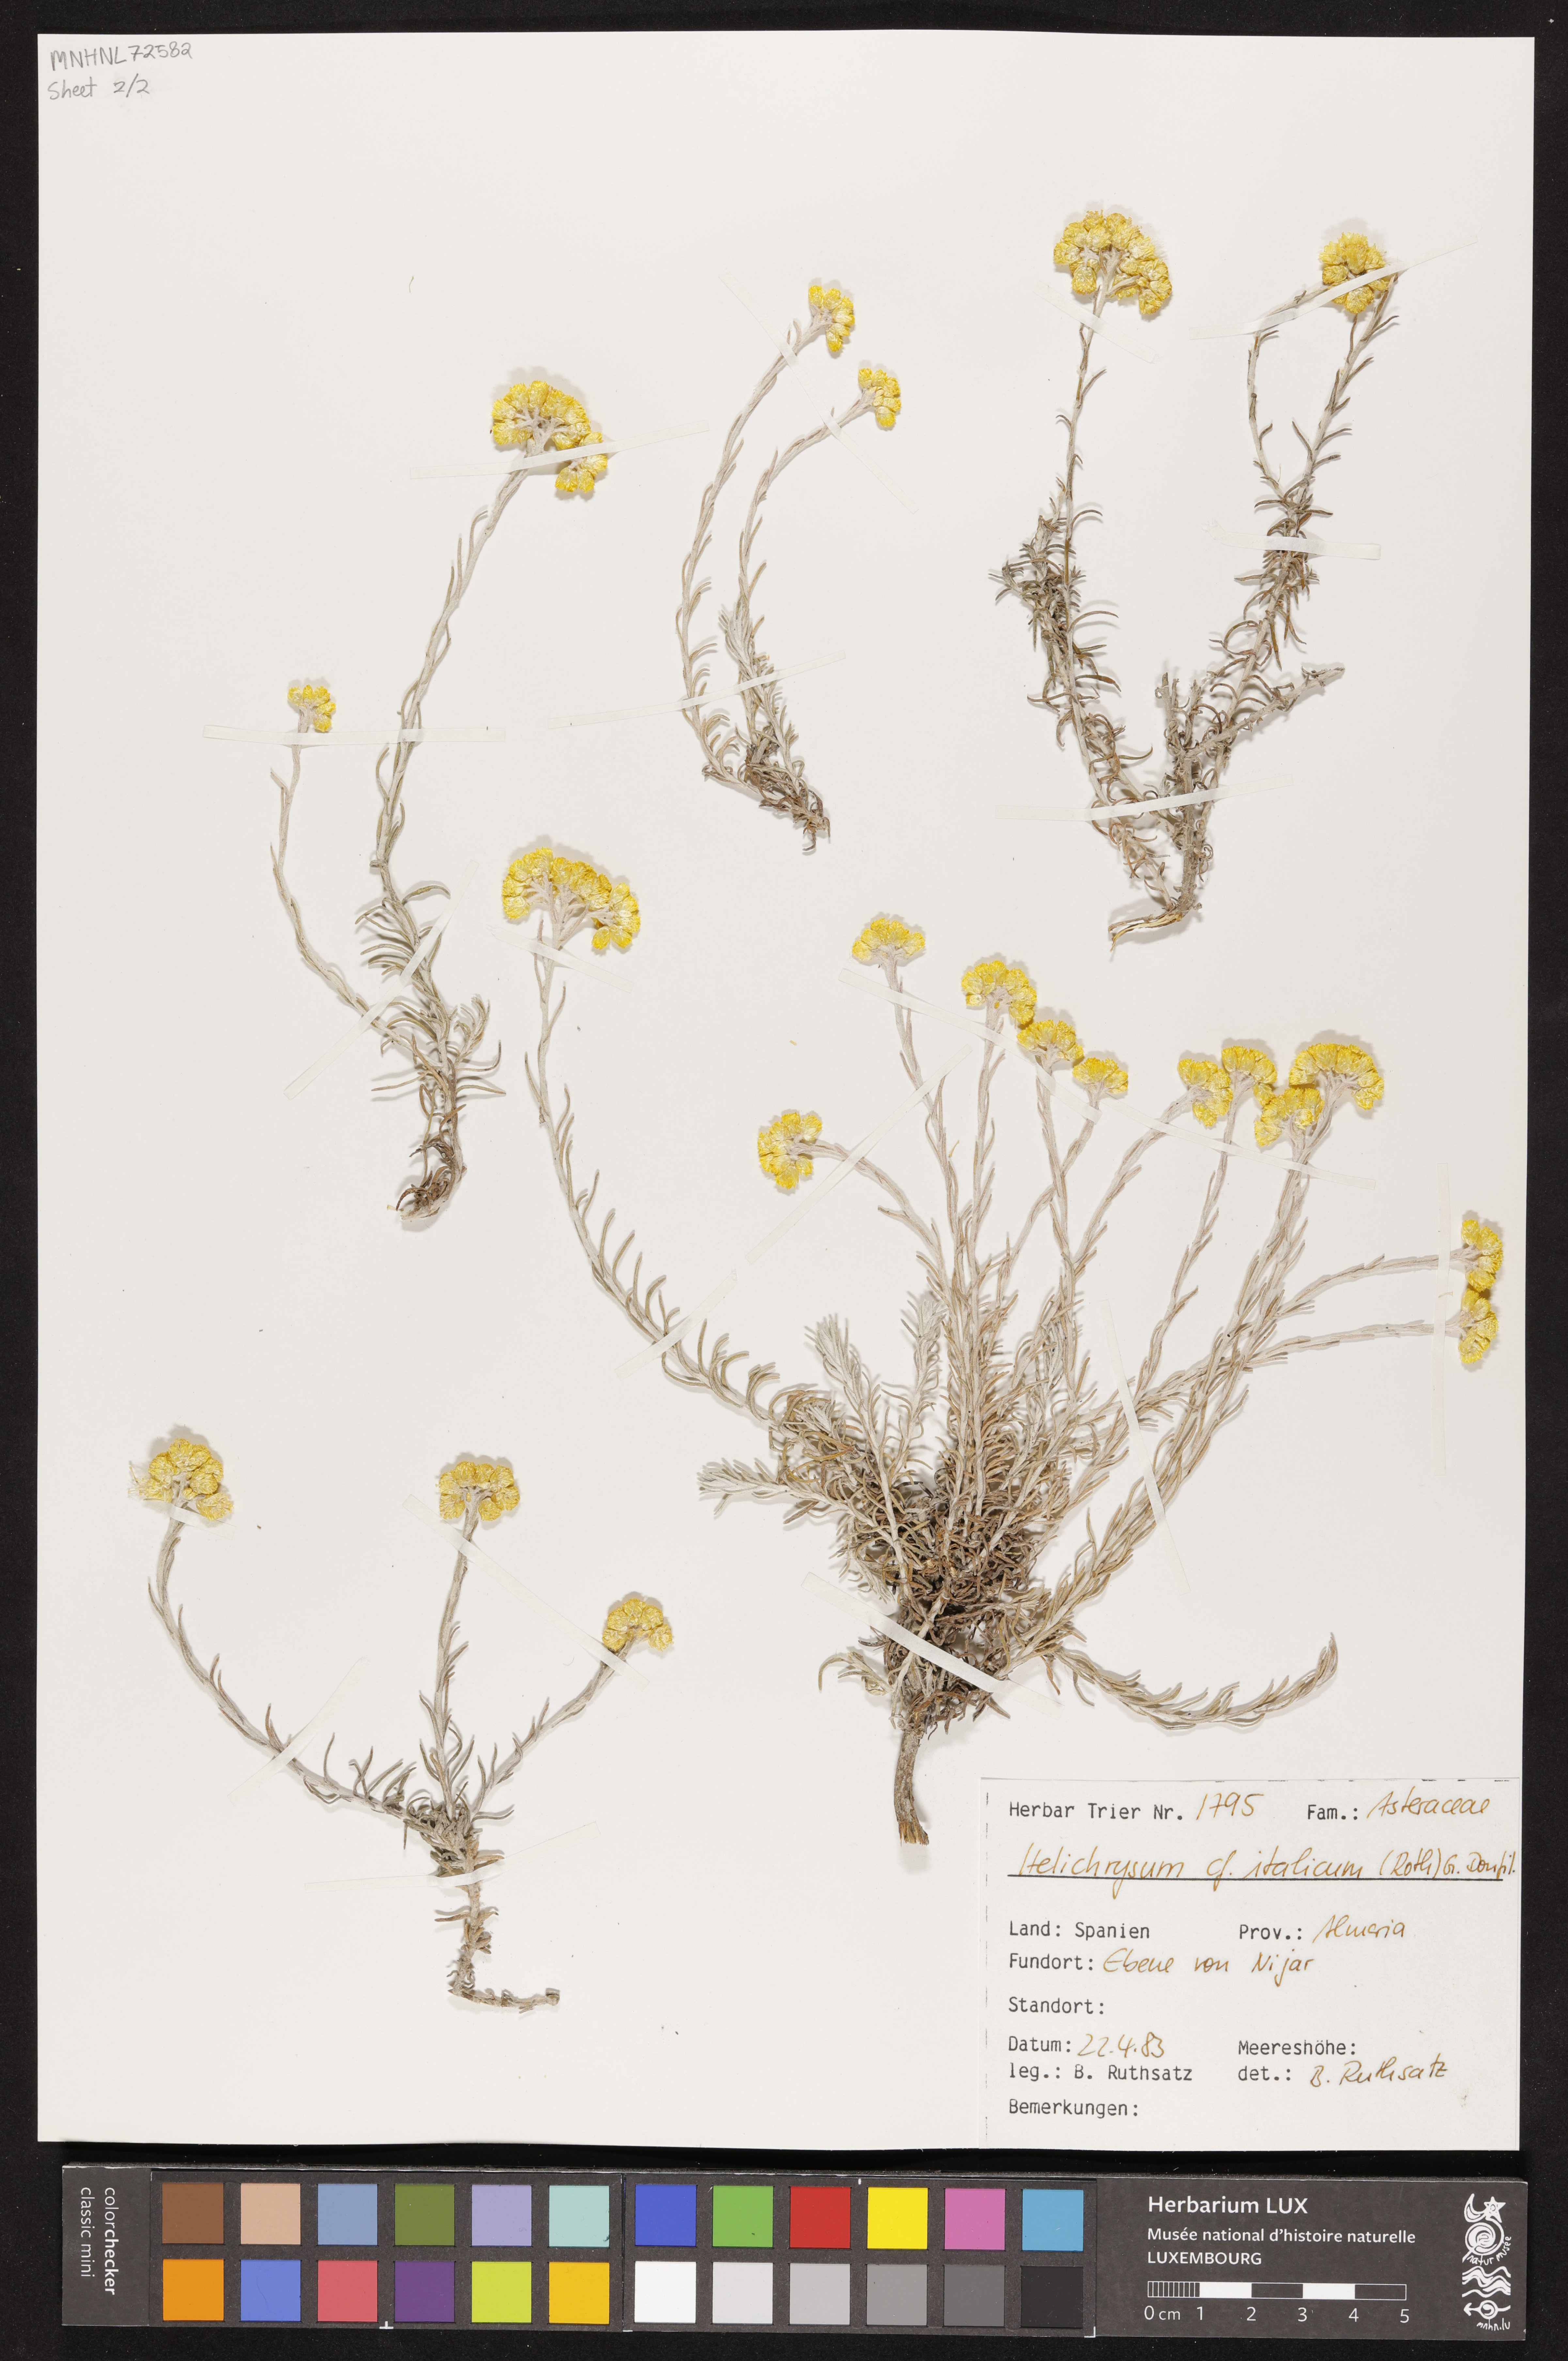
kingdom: Plantae
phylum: Tracheophyta
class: Magnoliopsida
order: Asterales
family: Asteraceae
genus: Helichrysum
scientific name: Helichrysum italicum
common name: Curryplant
